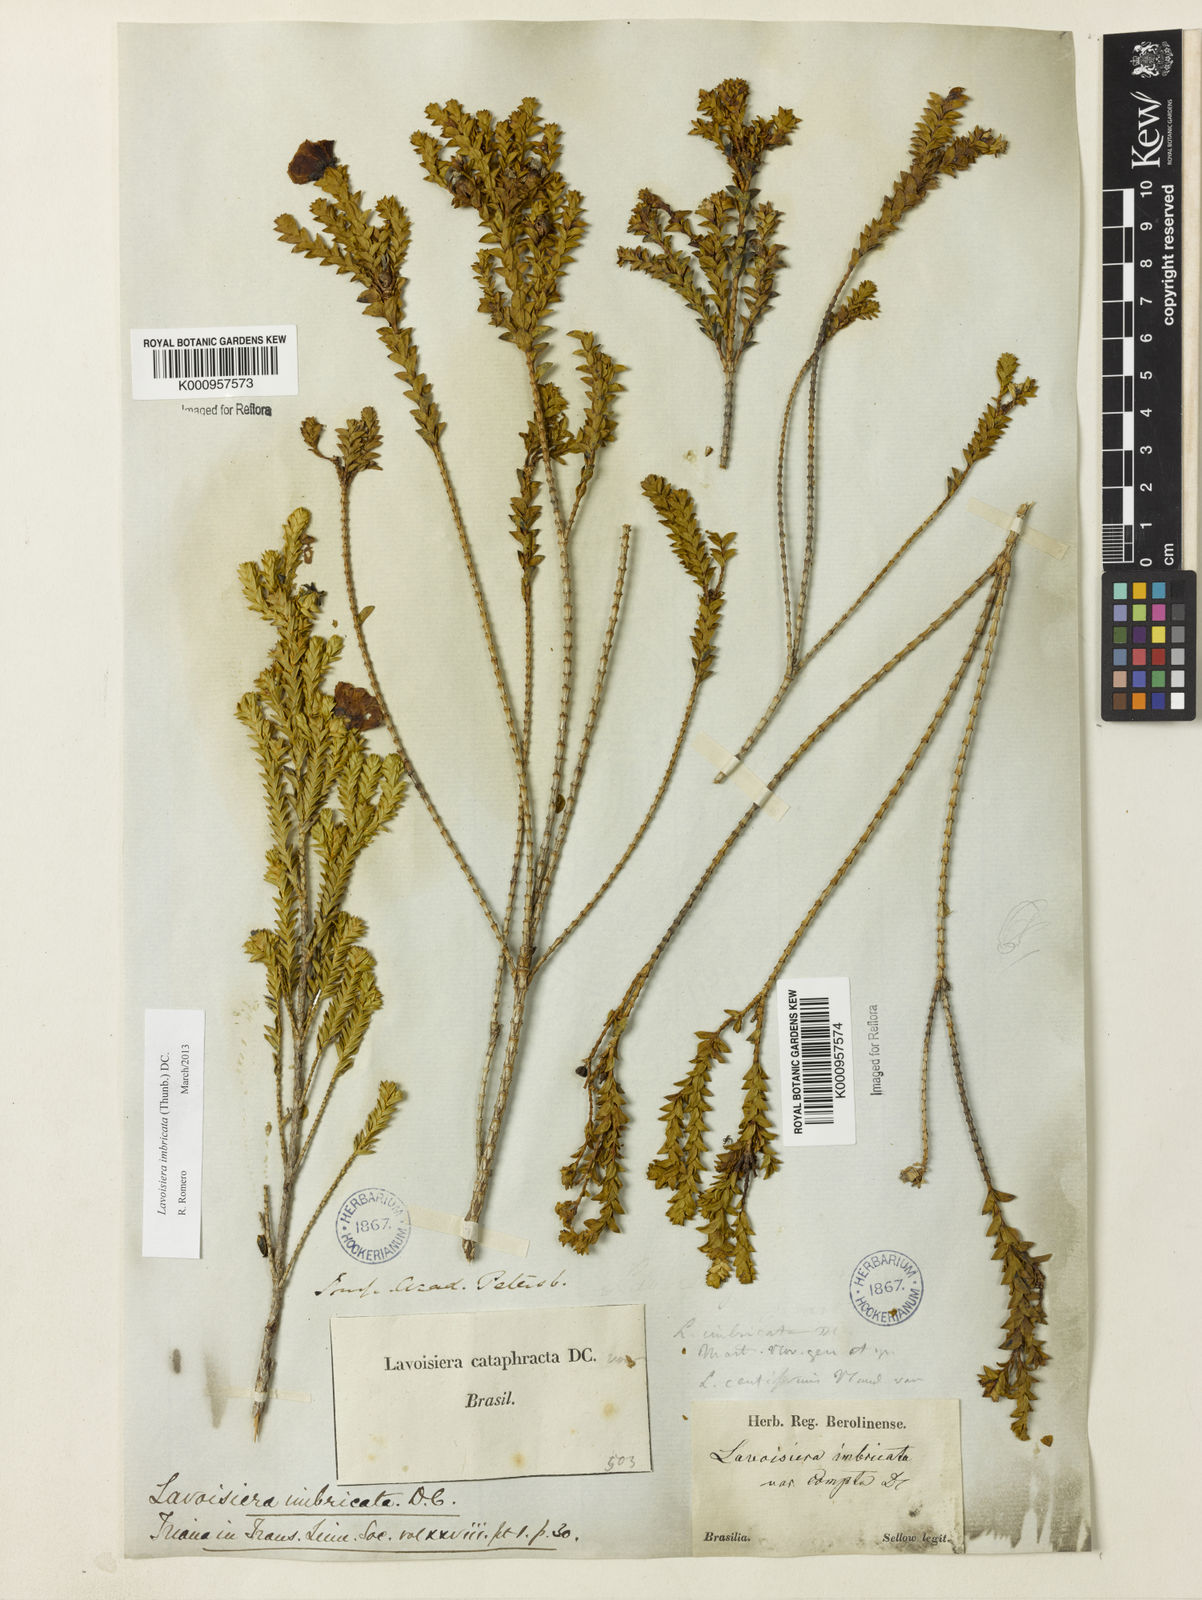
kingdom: Plantae
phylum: Tracheophyta
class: Magnoliopsida
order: Myrtales
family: Melastomataceae
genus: Microlicia
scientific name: Microlicia cataphracta
